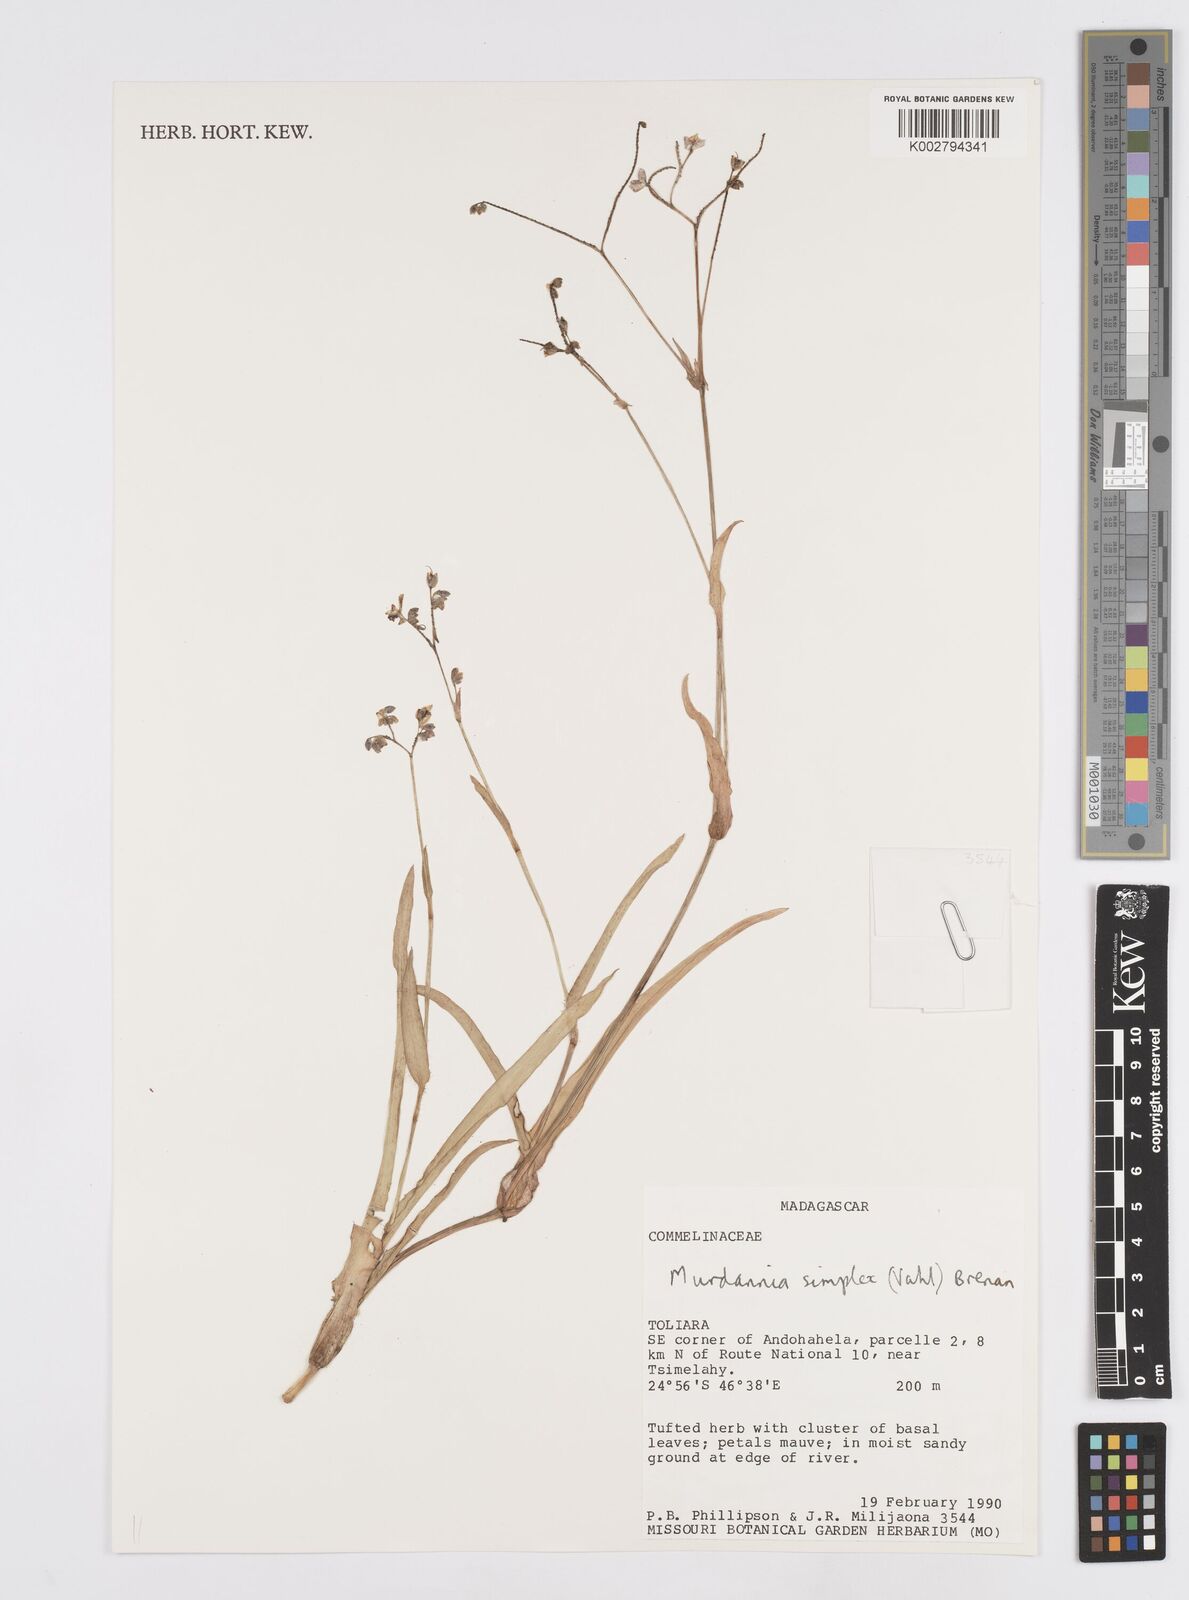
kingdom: Plantae
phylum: Tracheophyta
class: Liliopsida
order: Commelinales
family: Commelinaceae
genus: Murdannia
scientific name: Murdannia simplex
